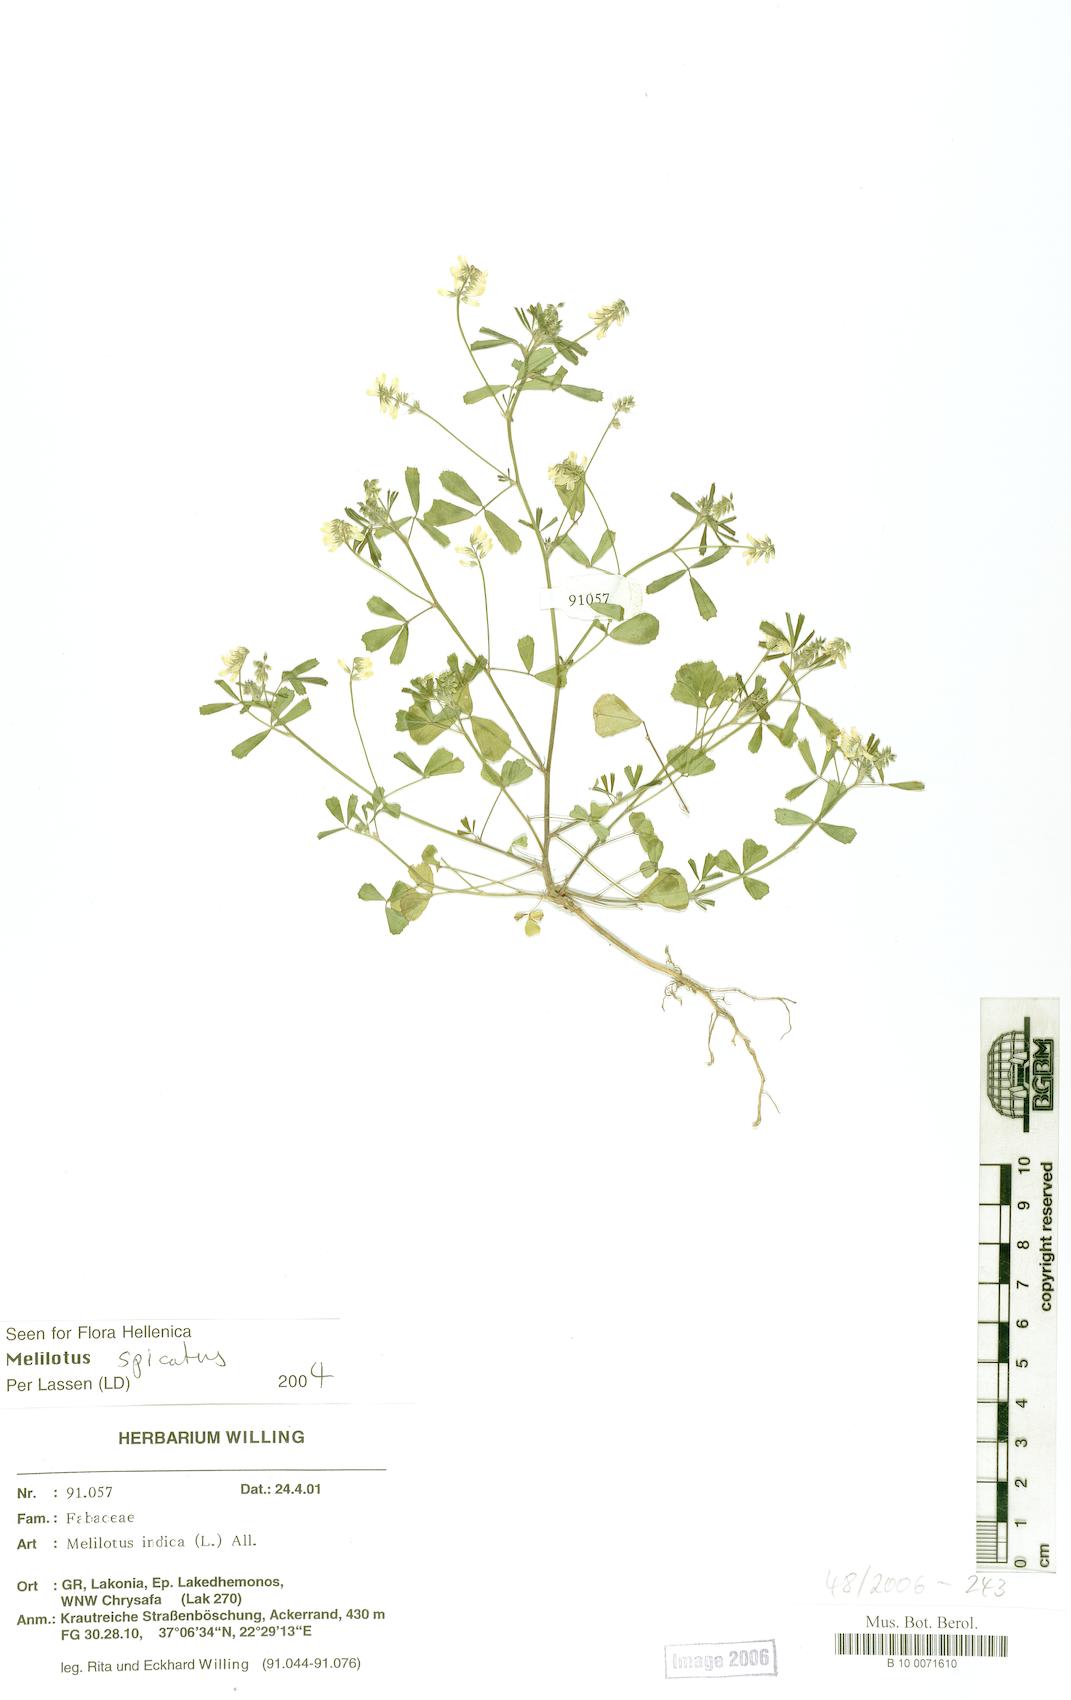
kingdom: Plantae
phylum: Tracheophyta
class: Magnoliopsida
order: Fabales
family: Fabaceae
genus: Melilotus
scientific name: Melilotus indicus
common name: Small melilot
